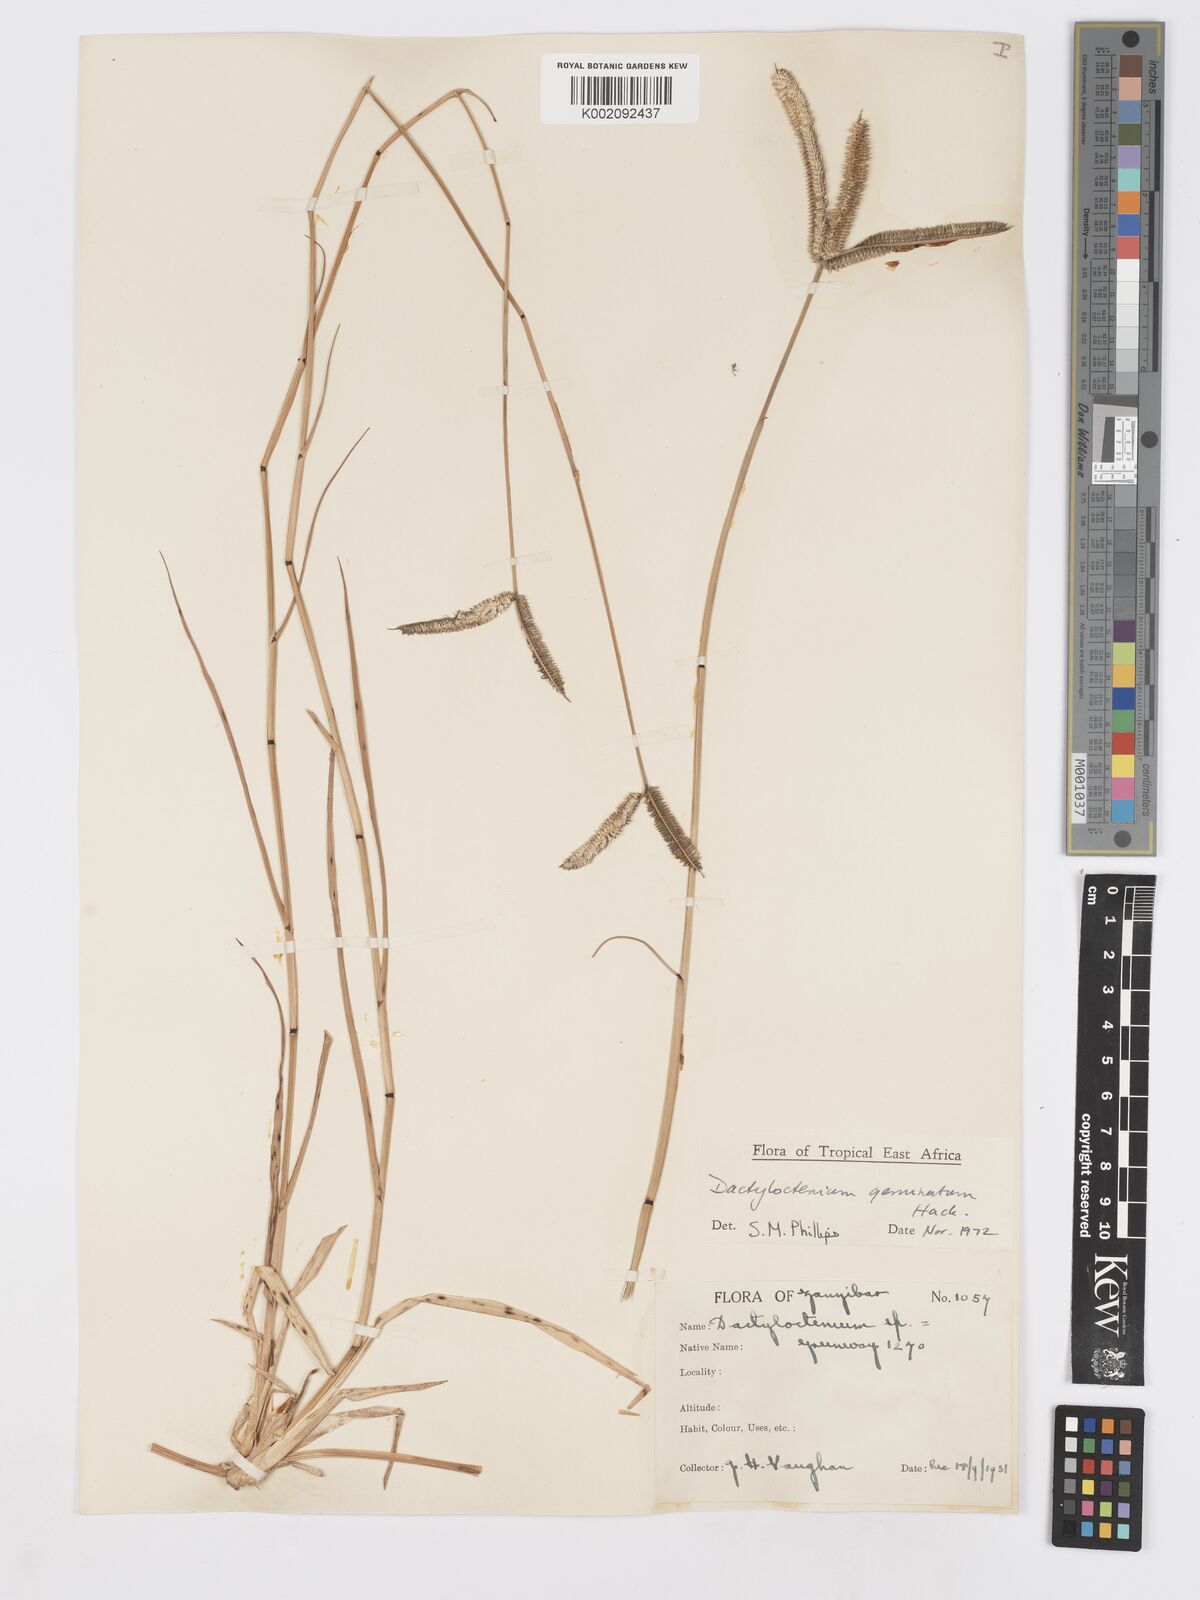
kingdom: Plantae
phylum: Tracheophyta
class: Liliopsida
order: Poales
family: Poaceae
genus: Dactyloctenium
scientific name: Dactyloctenium geminatum
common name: Crowsfoot grass
